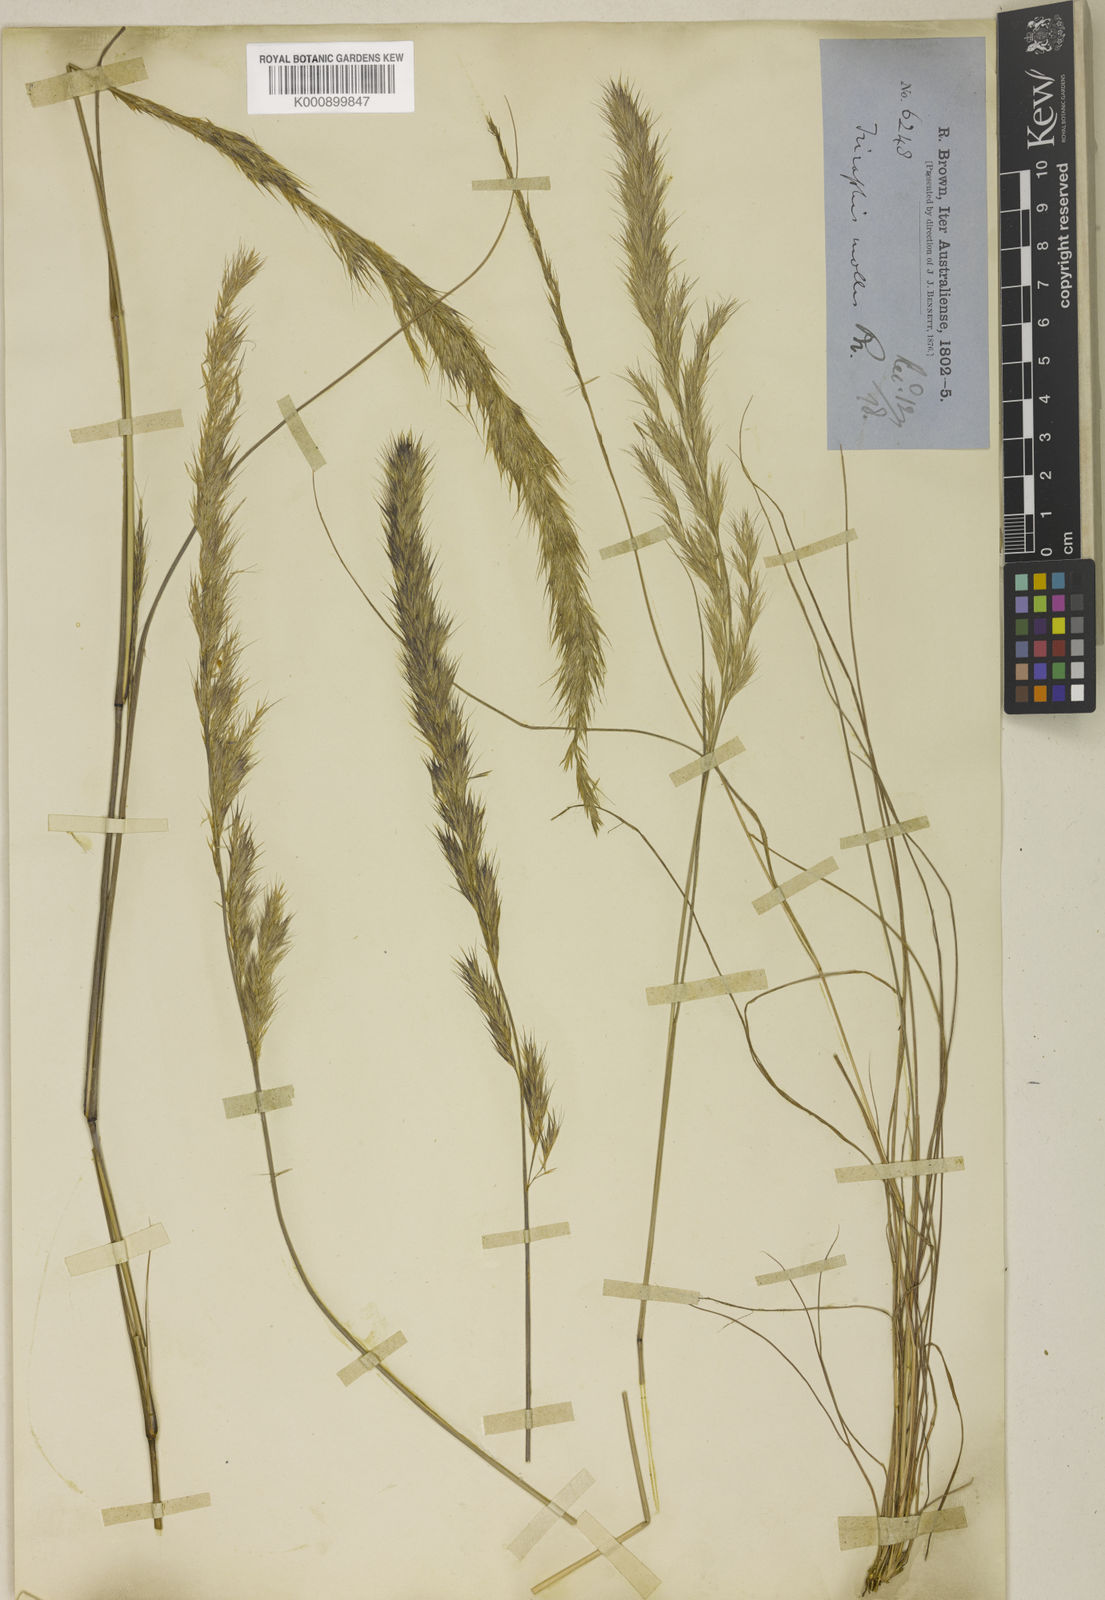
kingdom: Plantae
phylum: Tracheophyta
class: Liliopsida
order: Poales
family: Poaceae
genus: Triraphis
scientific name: Triraphis mollis
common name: Purple needlegrass
